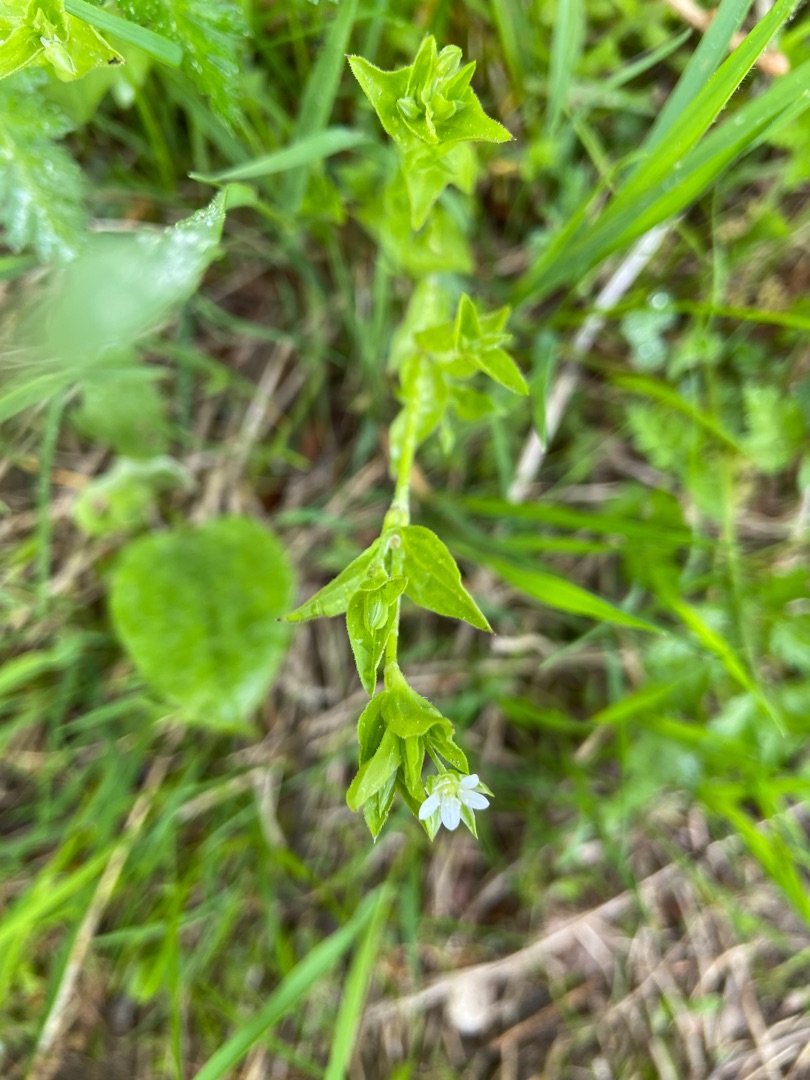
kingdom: Plantae
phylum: Tracheophyta
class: Magnoliopsida
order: Caryophyllales
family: Caryophyllaceae
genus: Moehringia
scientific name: Moehringia trinervia
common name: Skovarve
